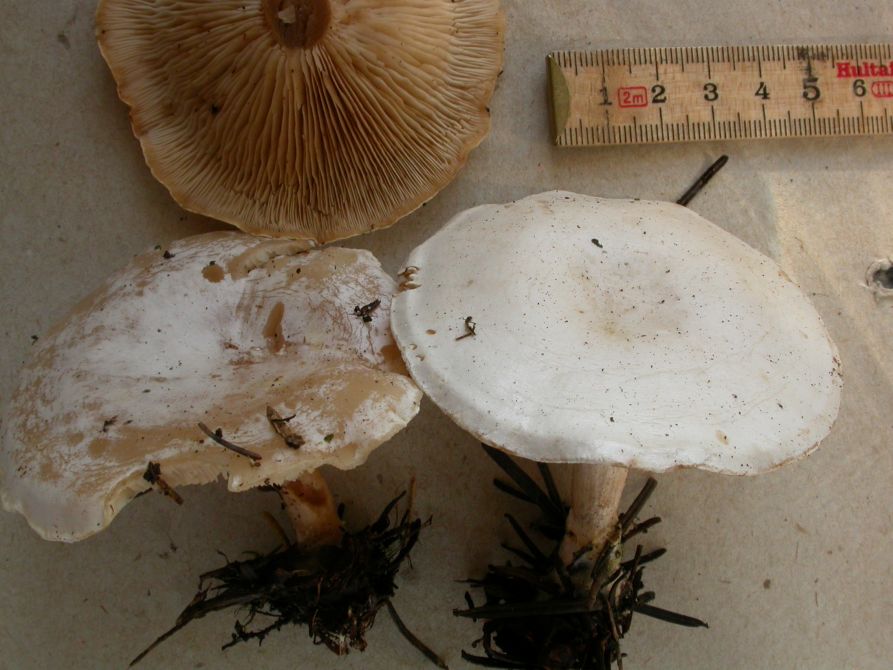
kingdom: Fungi
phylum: Basidiomycota
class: Agaricomycetes
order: Agaricales
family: Tricholomataceae
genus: Clitocybe
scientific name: Clitocybe phyllophila
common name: løv-tragthat
